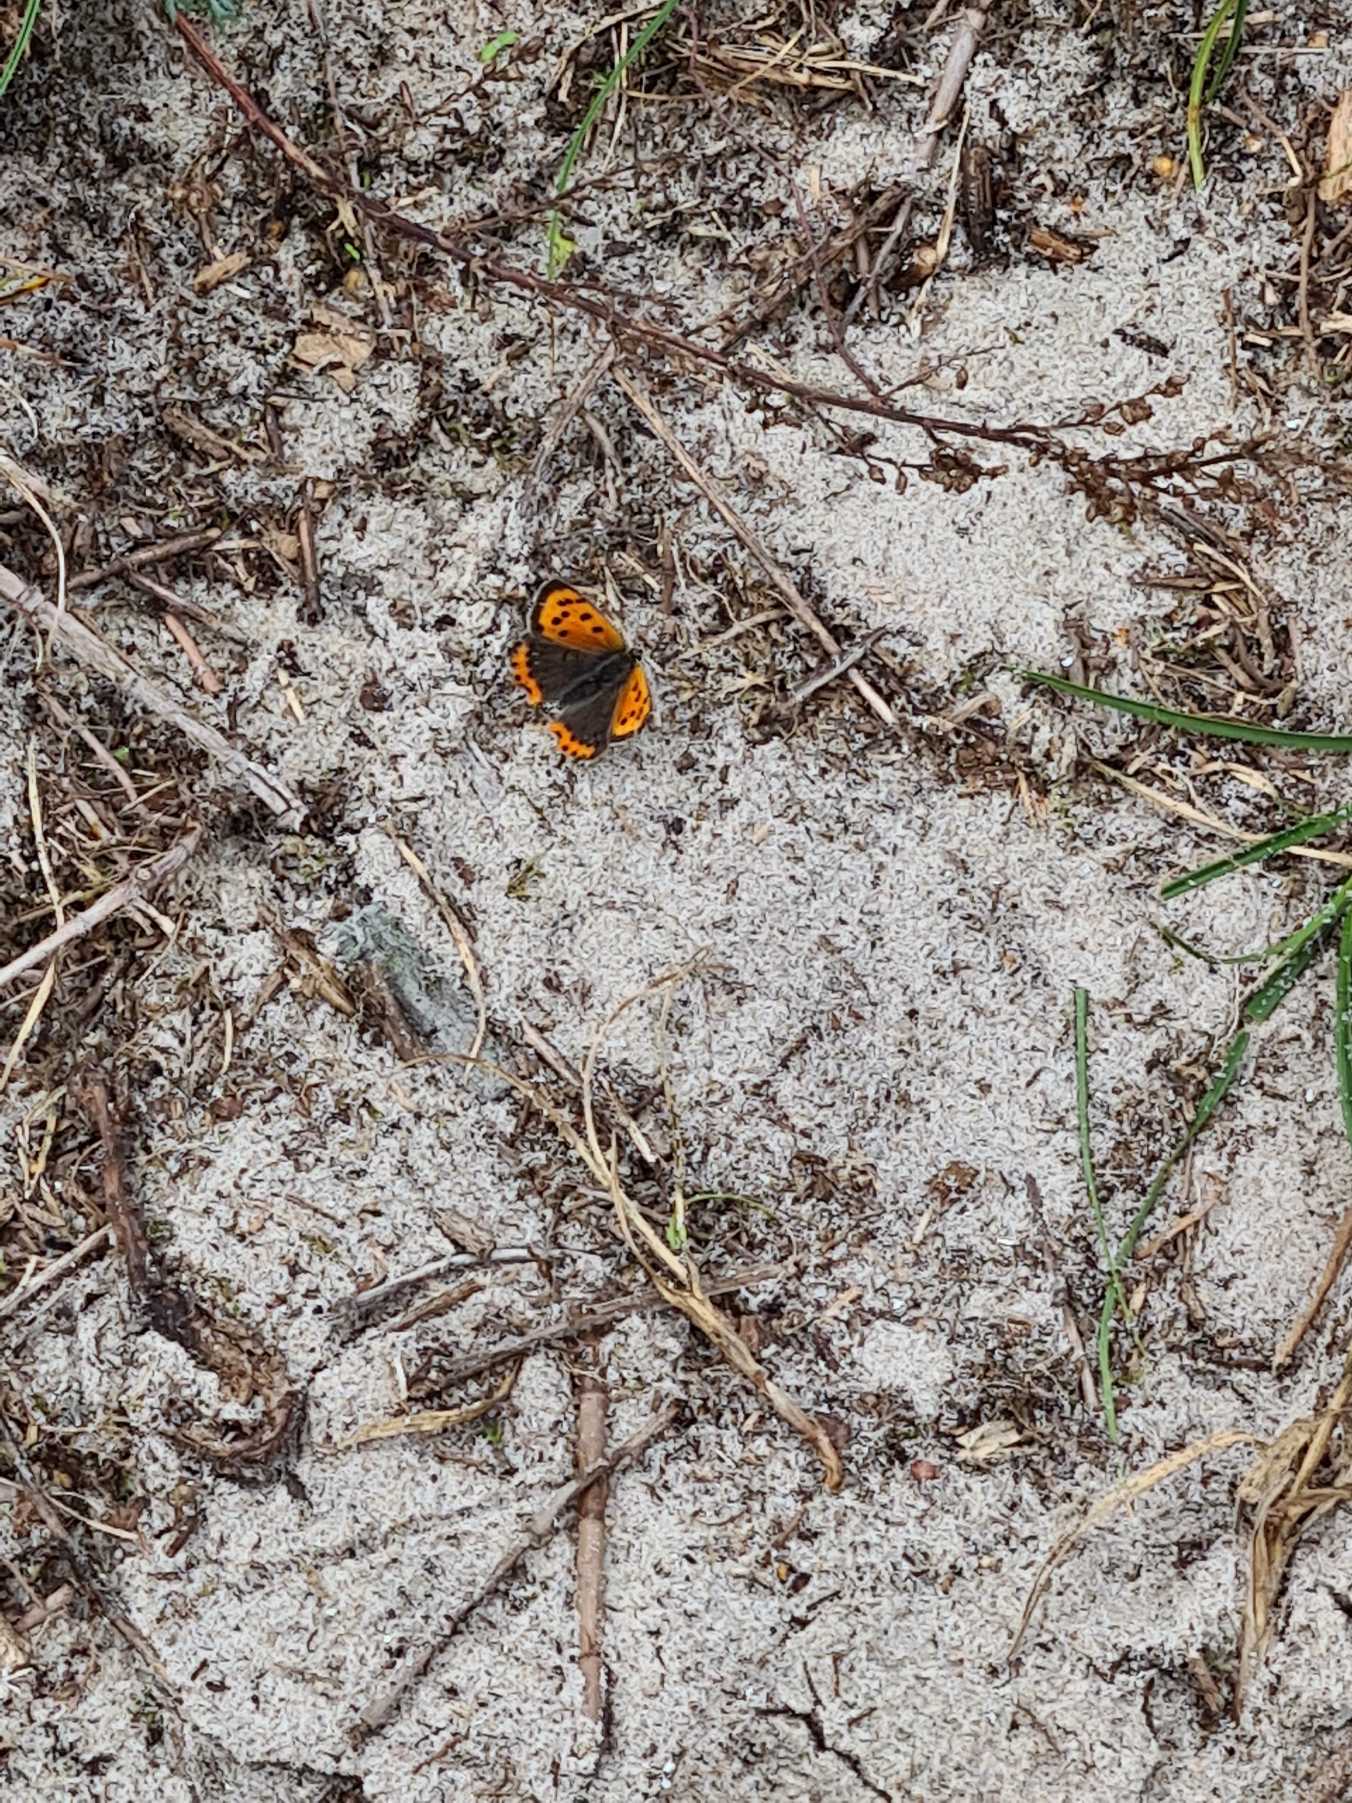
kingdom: Animalia
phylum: Arthropoda
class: Insecta
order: Lepidoptera
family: Lycaenidae
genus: Lycaena
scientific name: Lycaena phlaeas
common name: Lille ildfugl
